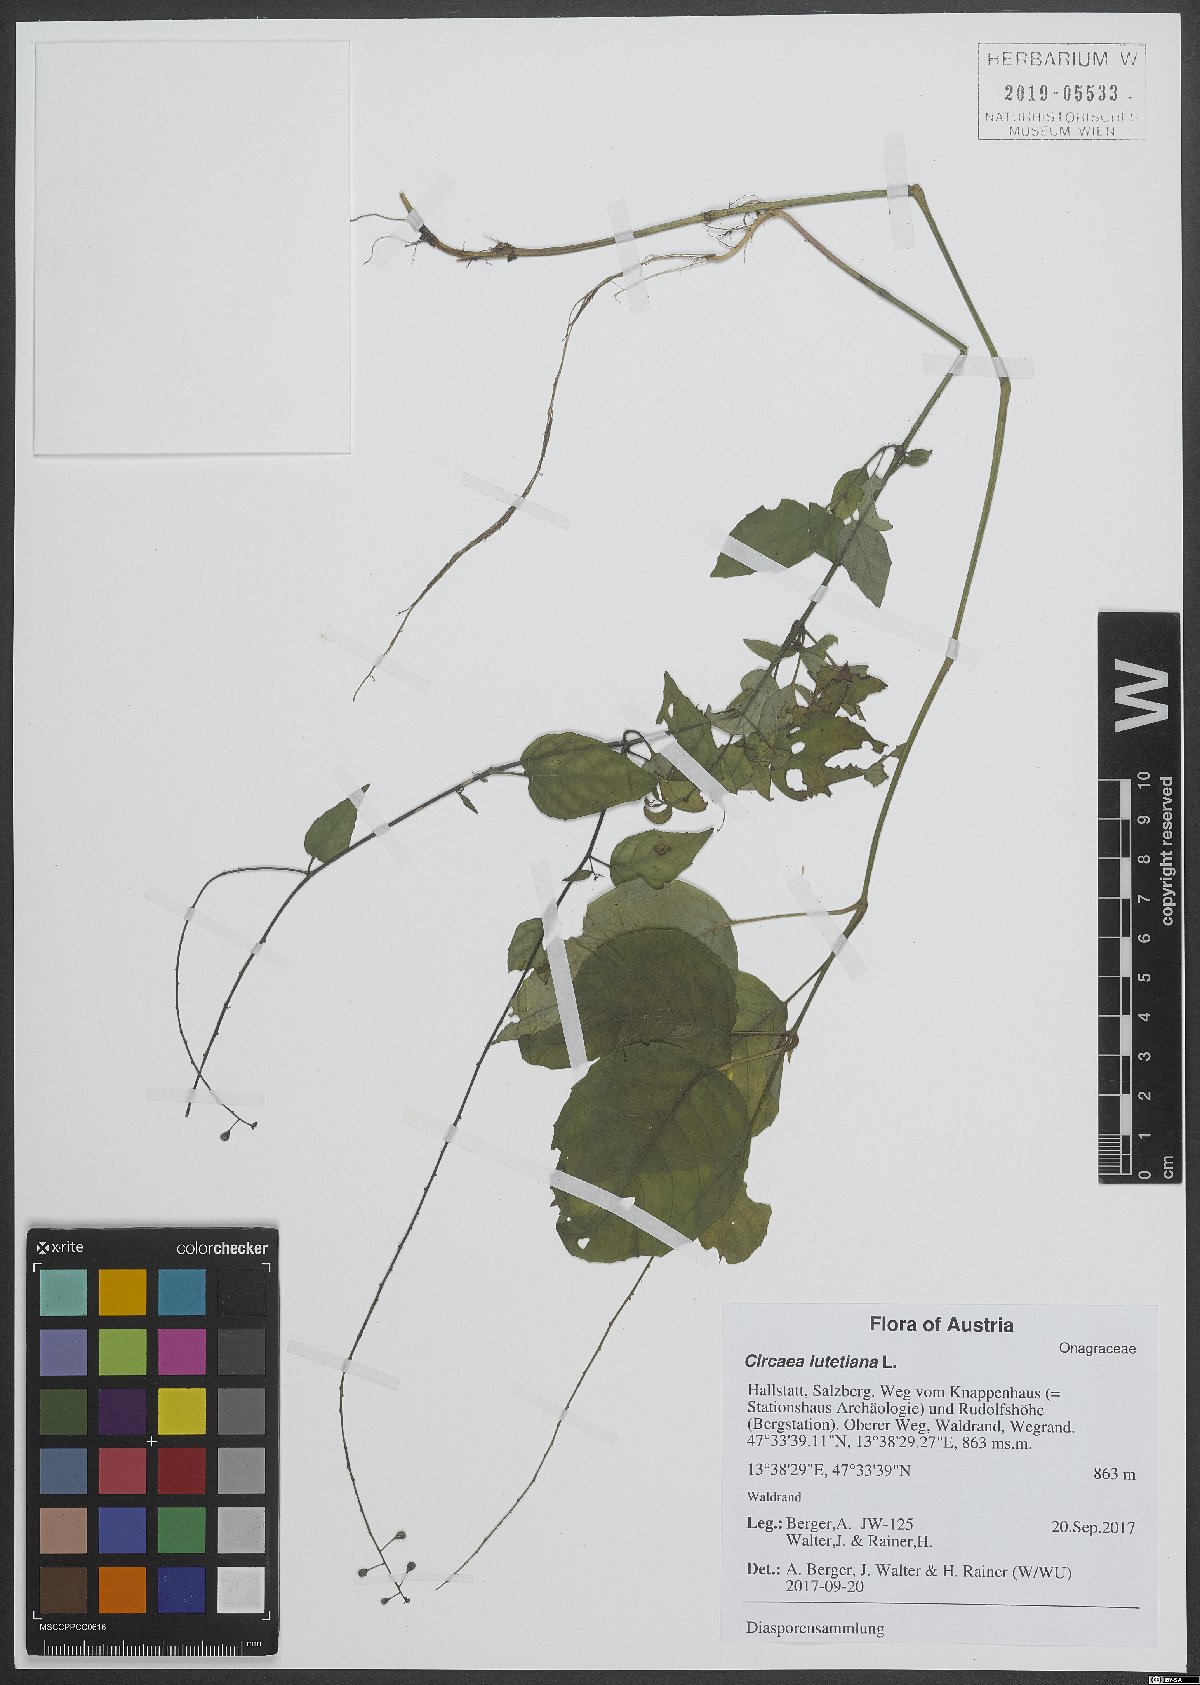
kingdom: Plantae
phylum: Tracheophyta
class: Magnoliopsida
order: Myrtales
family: Onagraceae
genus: Circaea
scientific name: Circaea lutetiana
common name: Enchanter's-nightshade
